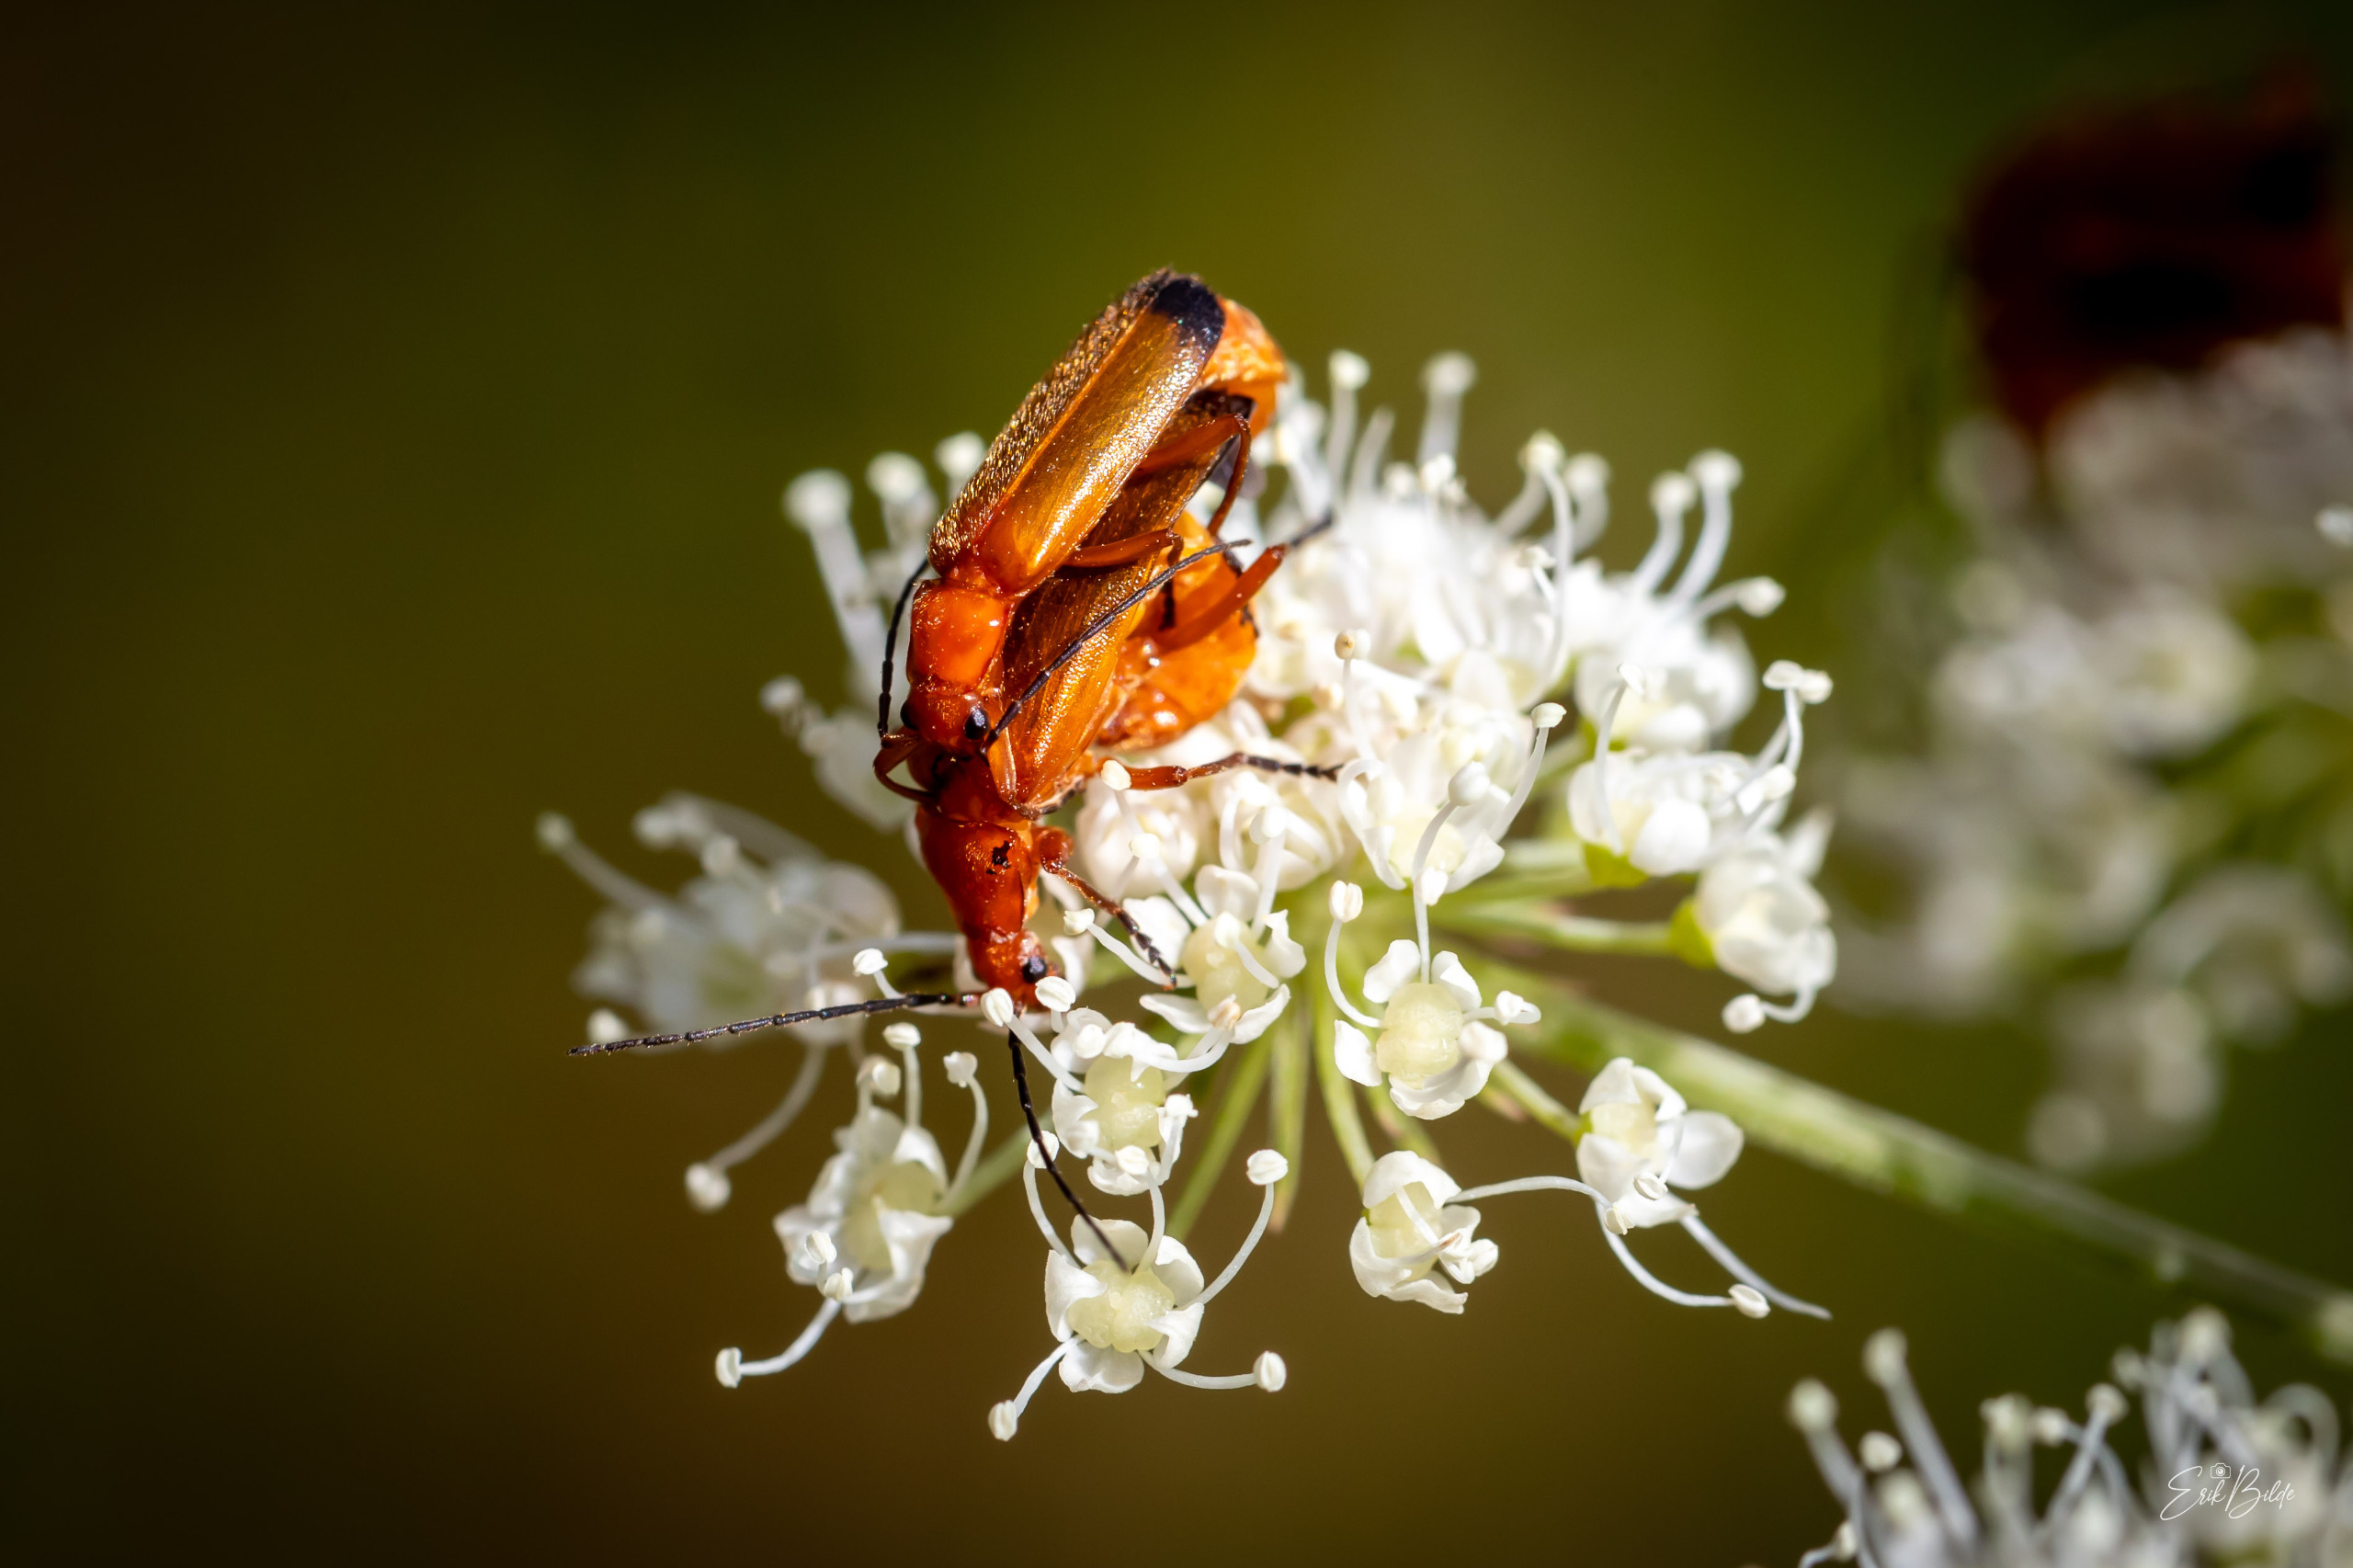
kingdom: Animalia
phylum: Arthropoda
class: Insecta
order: Coleoptera
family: Cantharidae
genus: Rhagonycha
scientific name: Rhagonycha fulva
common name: Præstebille
